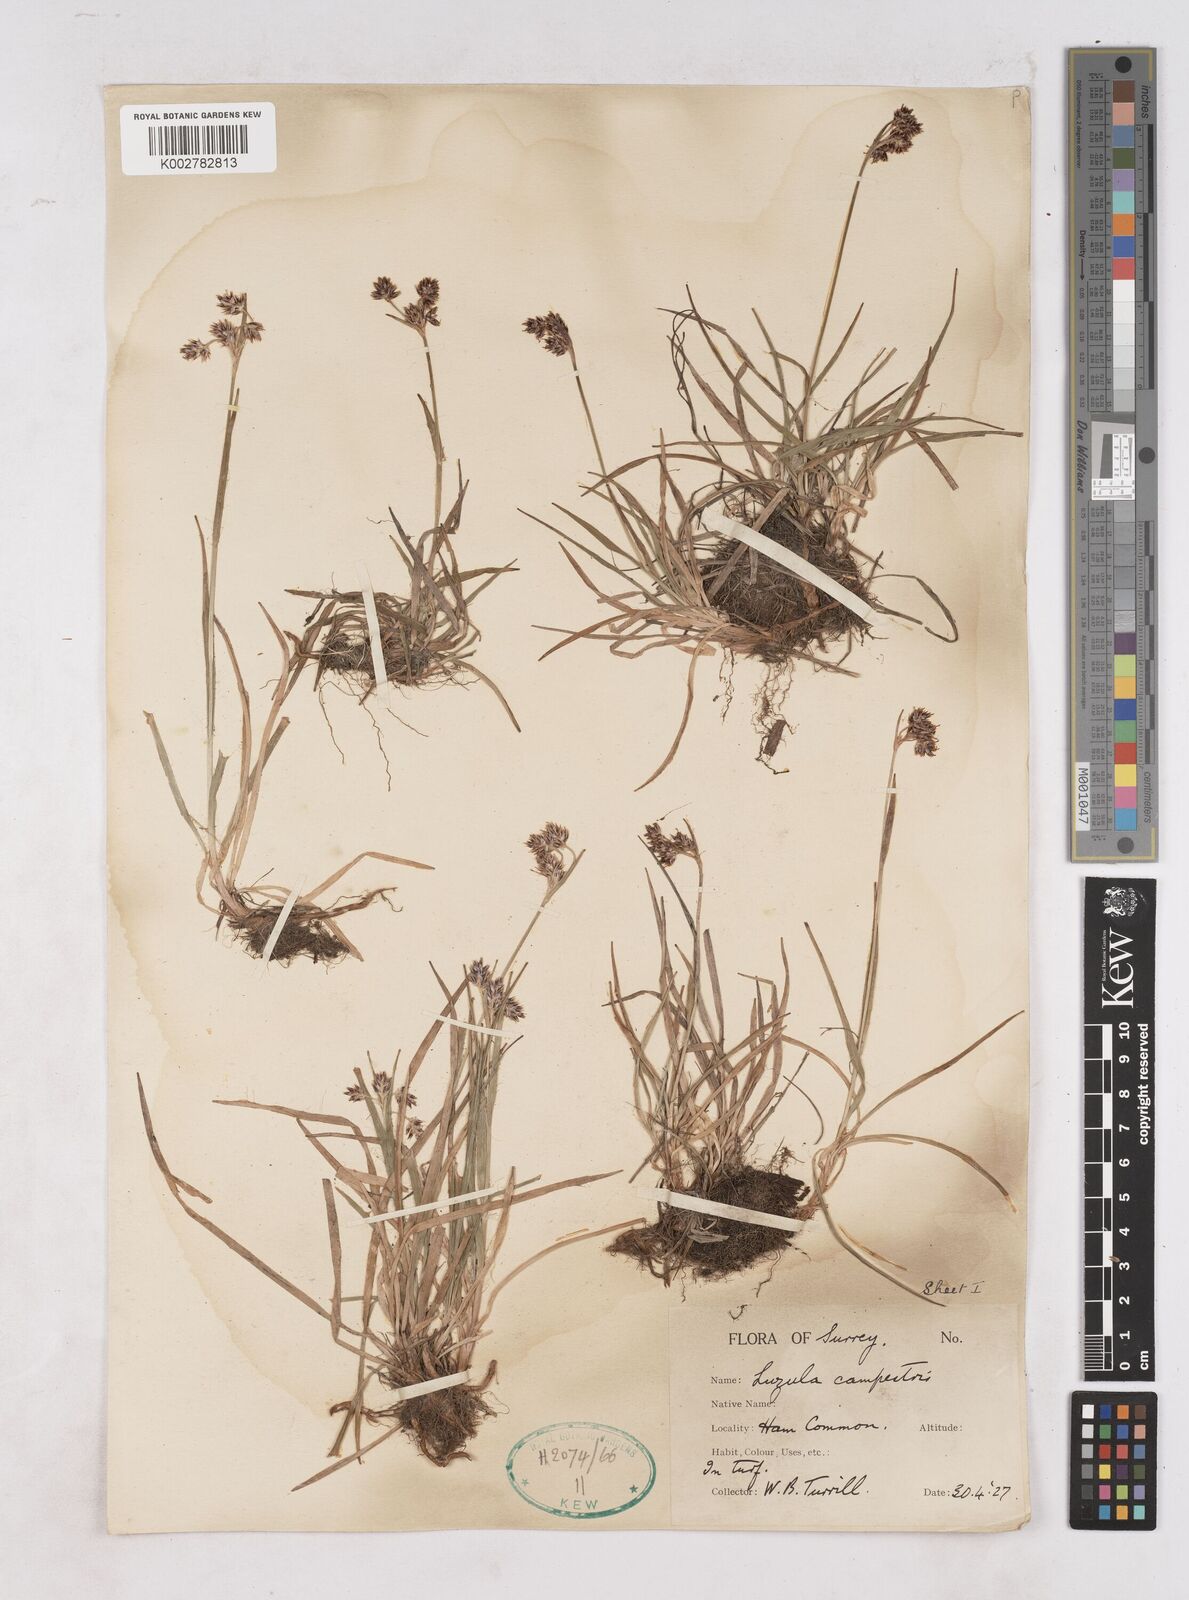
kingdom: Plantae
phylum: Tracheophyta
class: Liliopsida
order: Poales
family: Juncaceae
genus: Luzula
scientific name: Luzula campestris
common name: Field wood-rush
